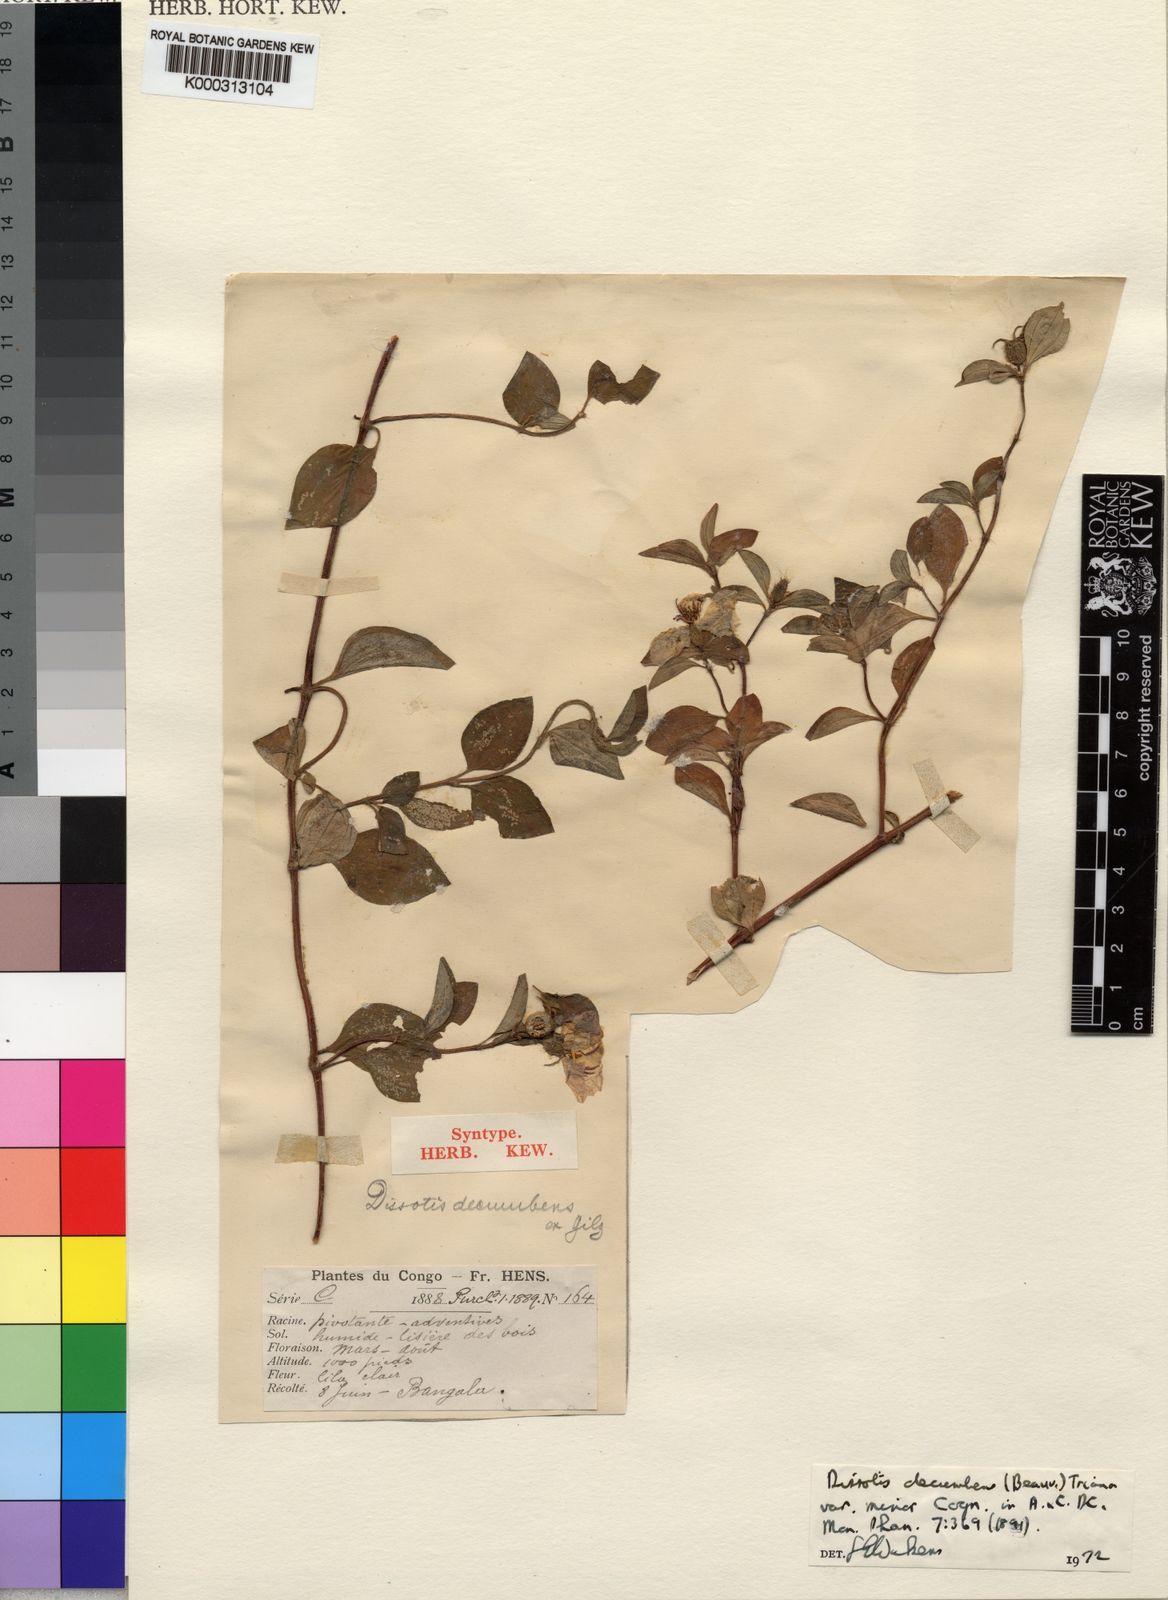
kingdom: Plantae
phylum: Tracheophyta
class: Magnoliopsida
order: Myrtales
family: Melastomataceae
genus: Heterotis
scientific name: Heterotis
